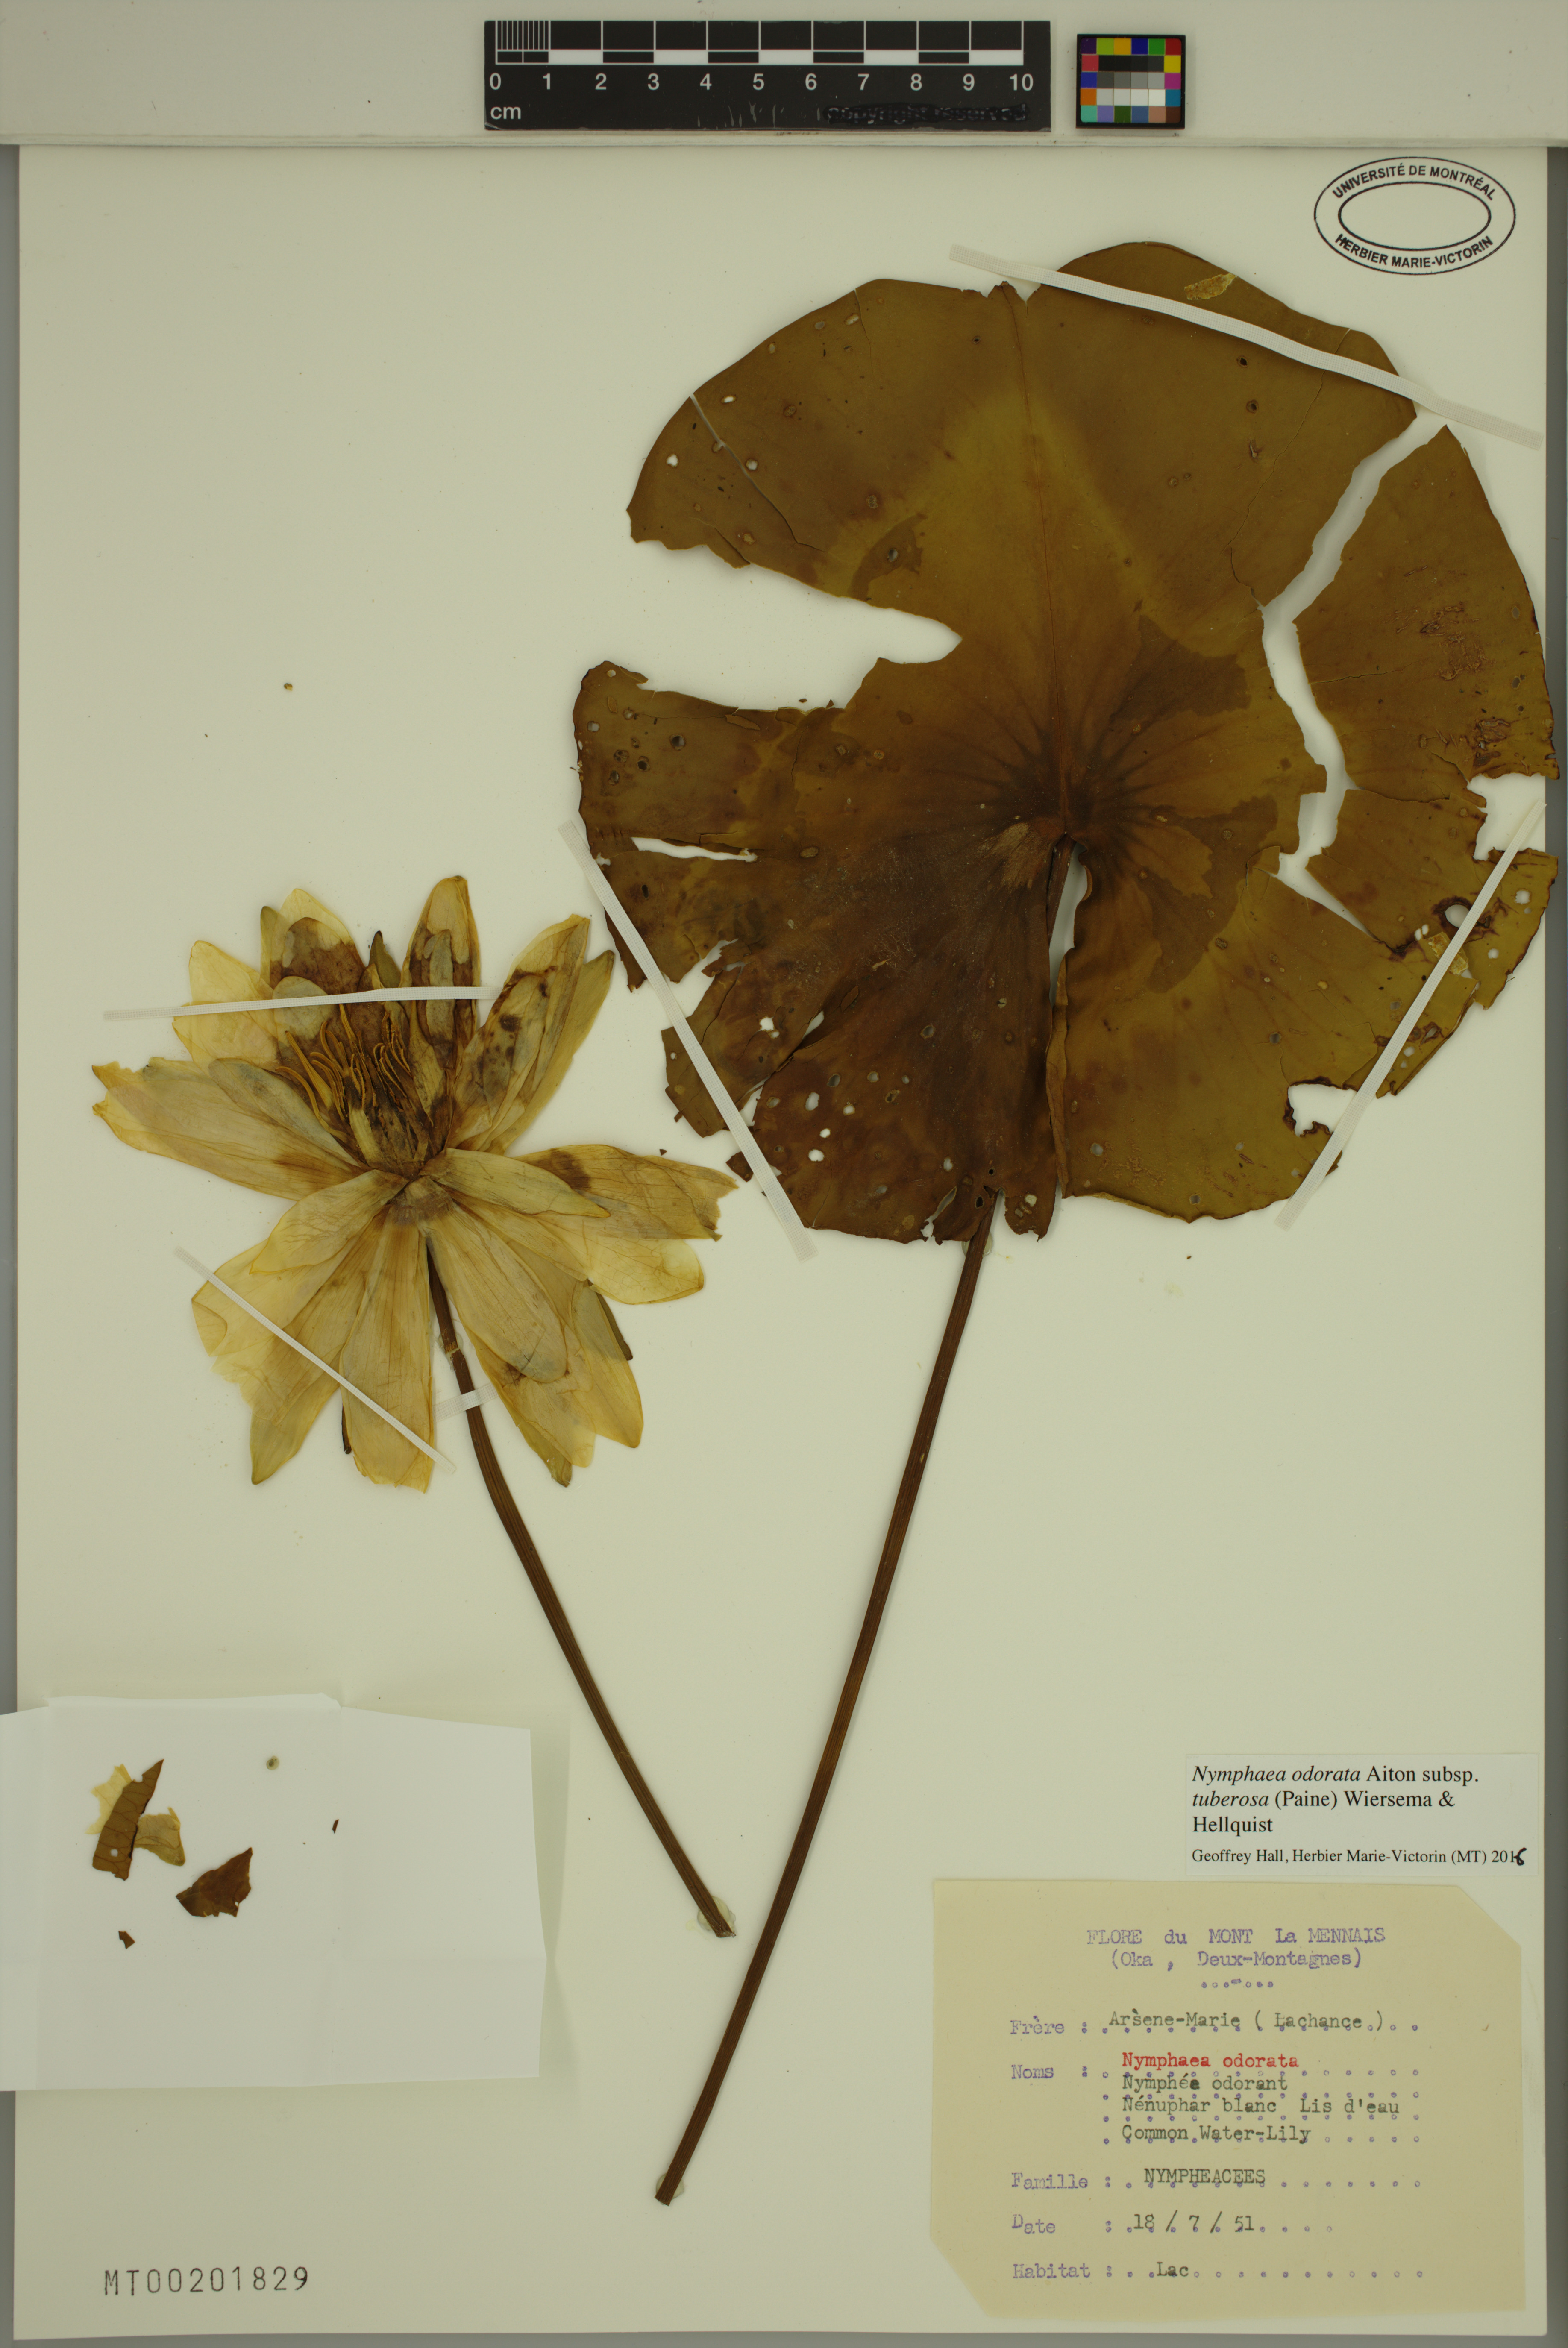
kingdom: Plantae
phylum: Tracheophyta
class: Magnoliopsida
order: Nymphaeales
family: Nymphaeaceae
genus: Nymphaea
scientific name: Nymphaea odorata
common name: Fragrant water-lily
